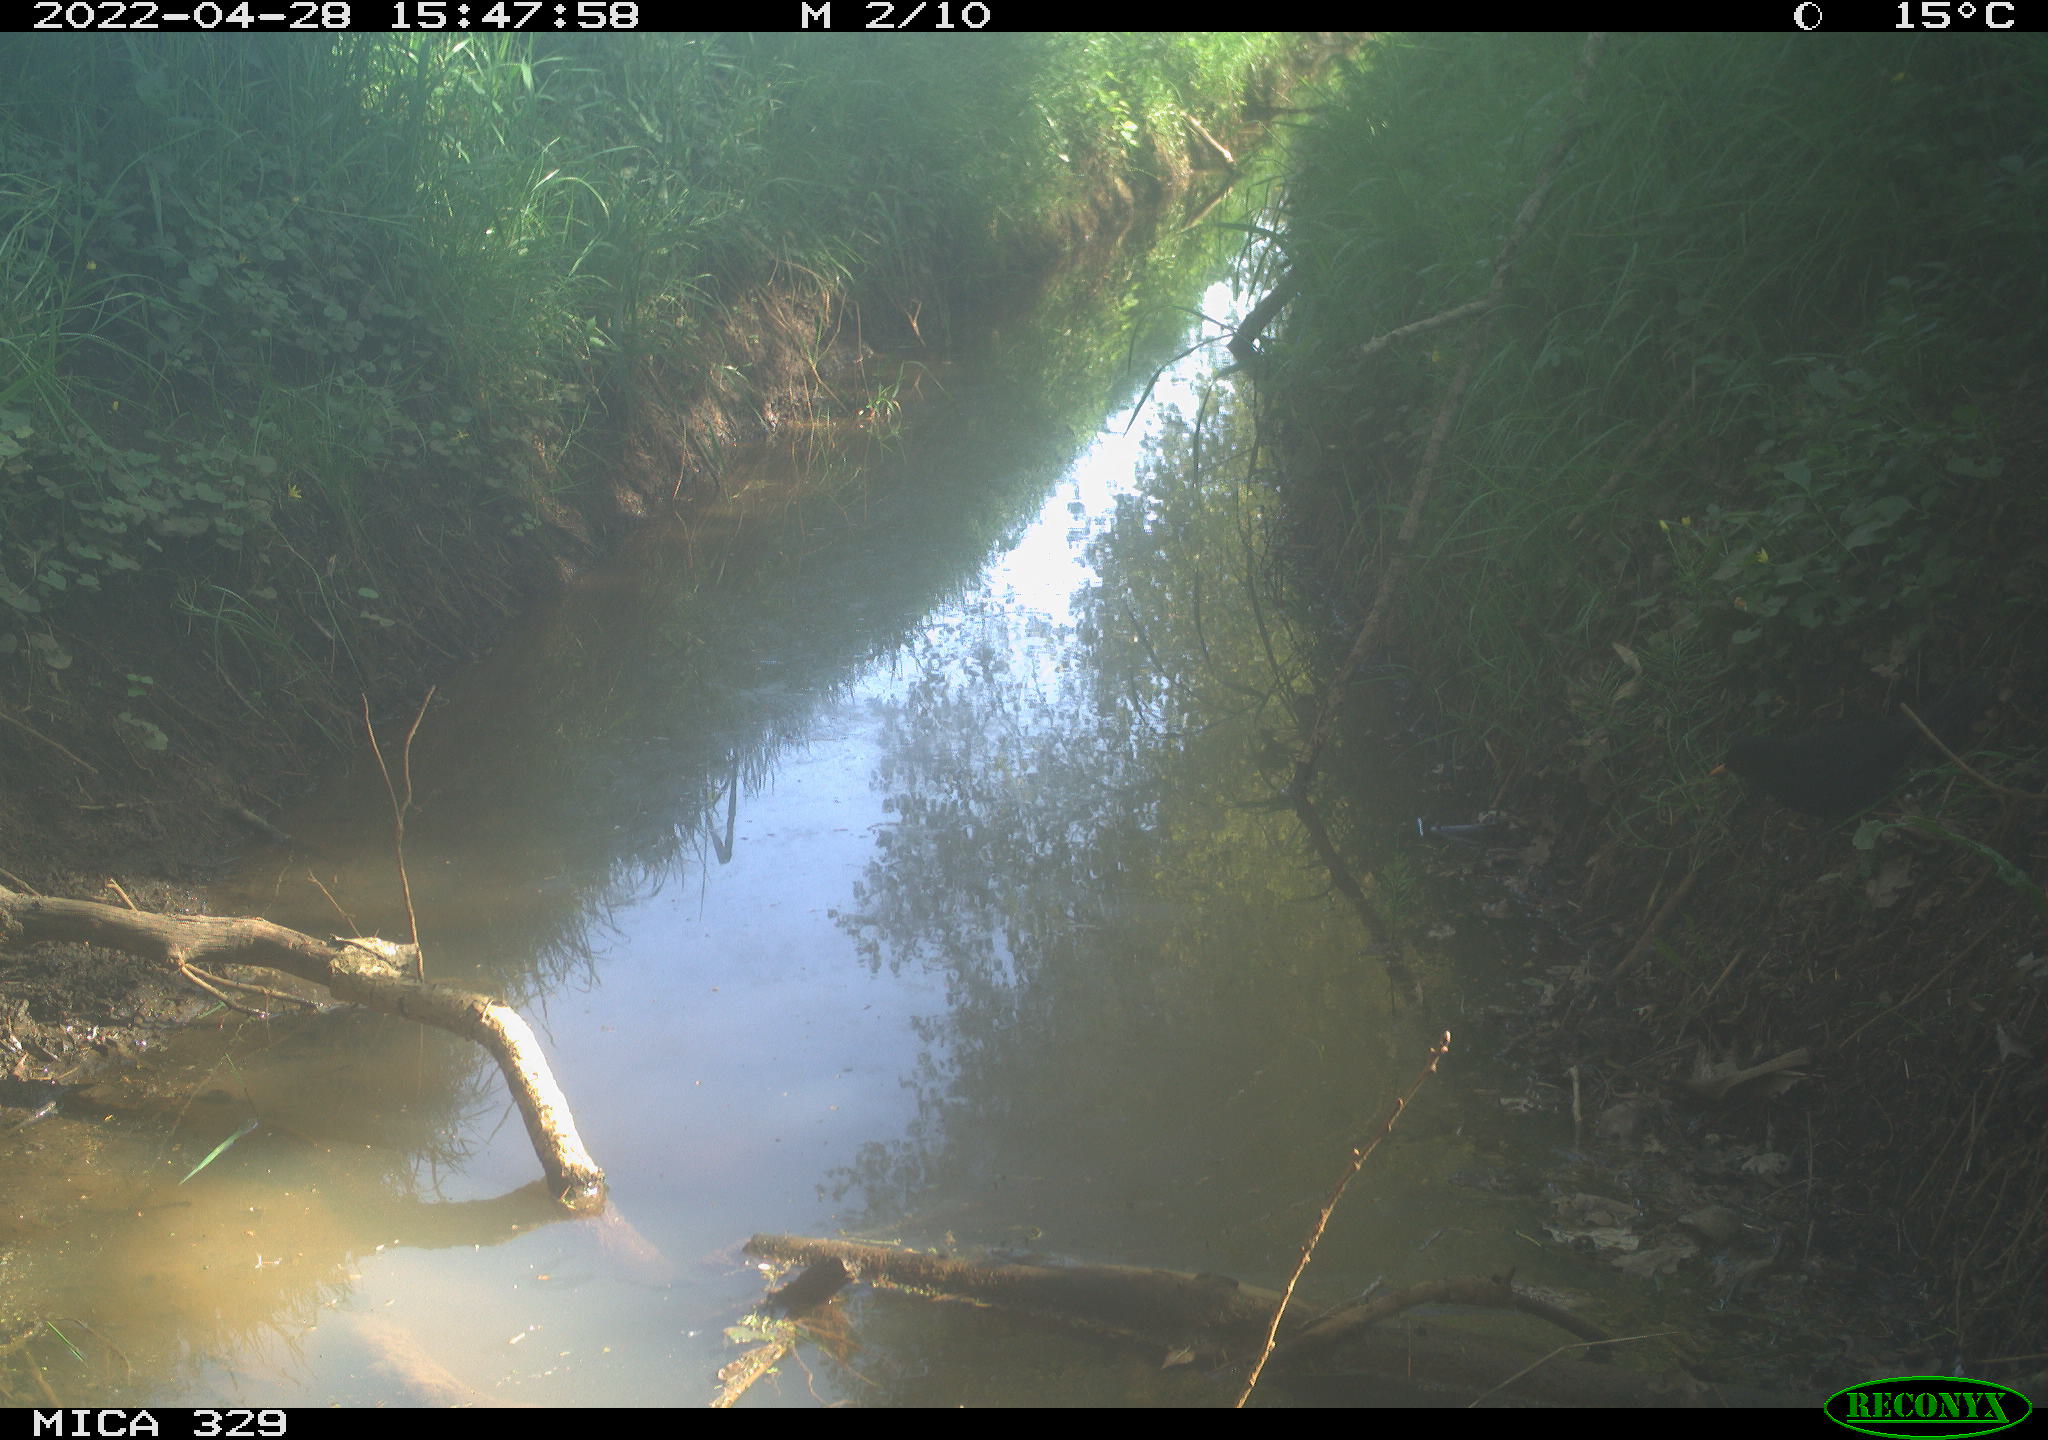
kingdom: Animalia
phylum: Chordata
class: Aves
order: Passeriformes
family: Turdidae
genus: Turdus
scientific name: Turdus merula
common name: Common blackbird
